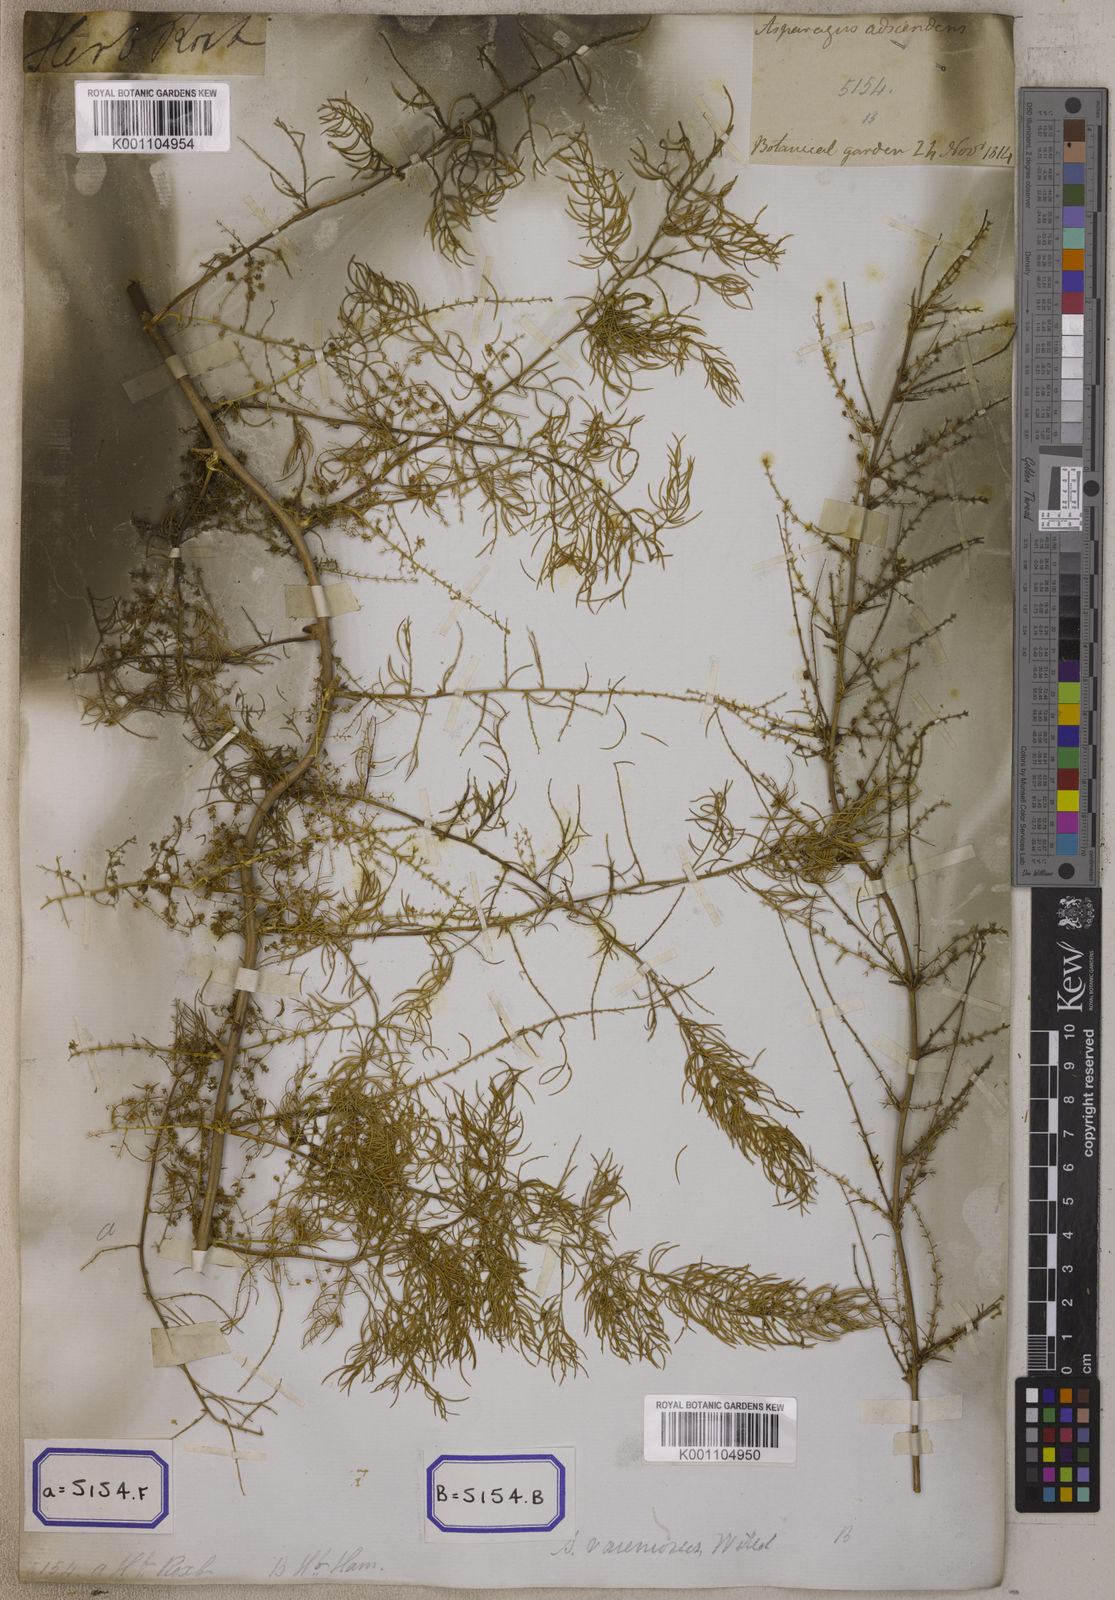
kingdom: Plantae
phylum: Tracheophyta
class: Liliopsida
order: Asparagales
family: Asparagaceae
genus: Asparagus
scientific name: Asparagus
